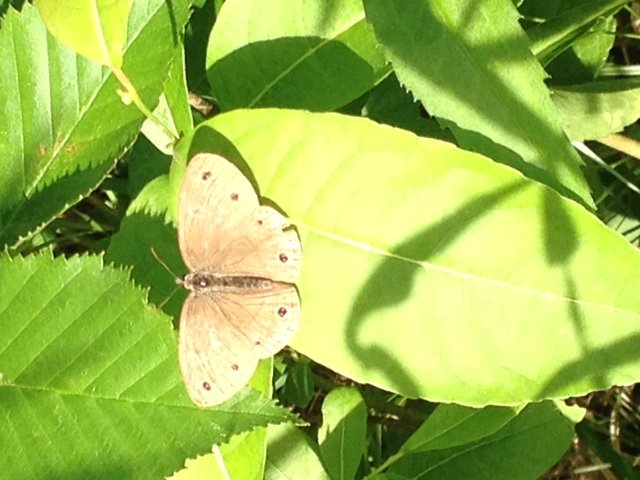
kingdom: Animalia
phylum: Arthropoda
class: Insecta
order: Lepidoptera
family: Nymphalidae
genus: Euptychia
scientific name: Euptychia cymela
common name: Little Wood Satyr
